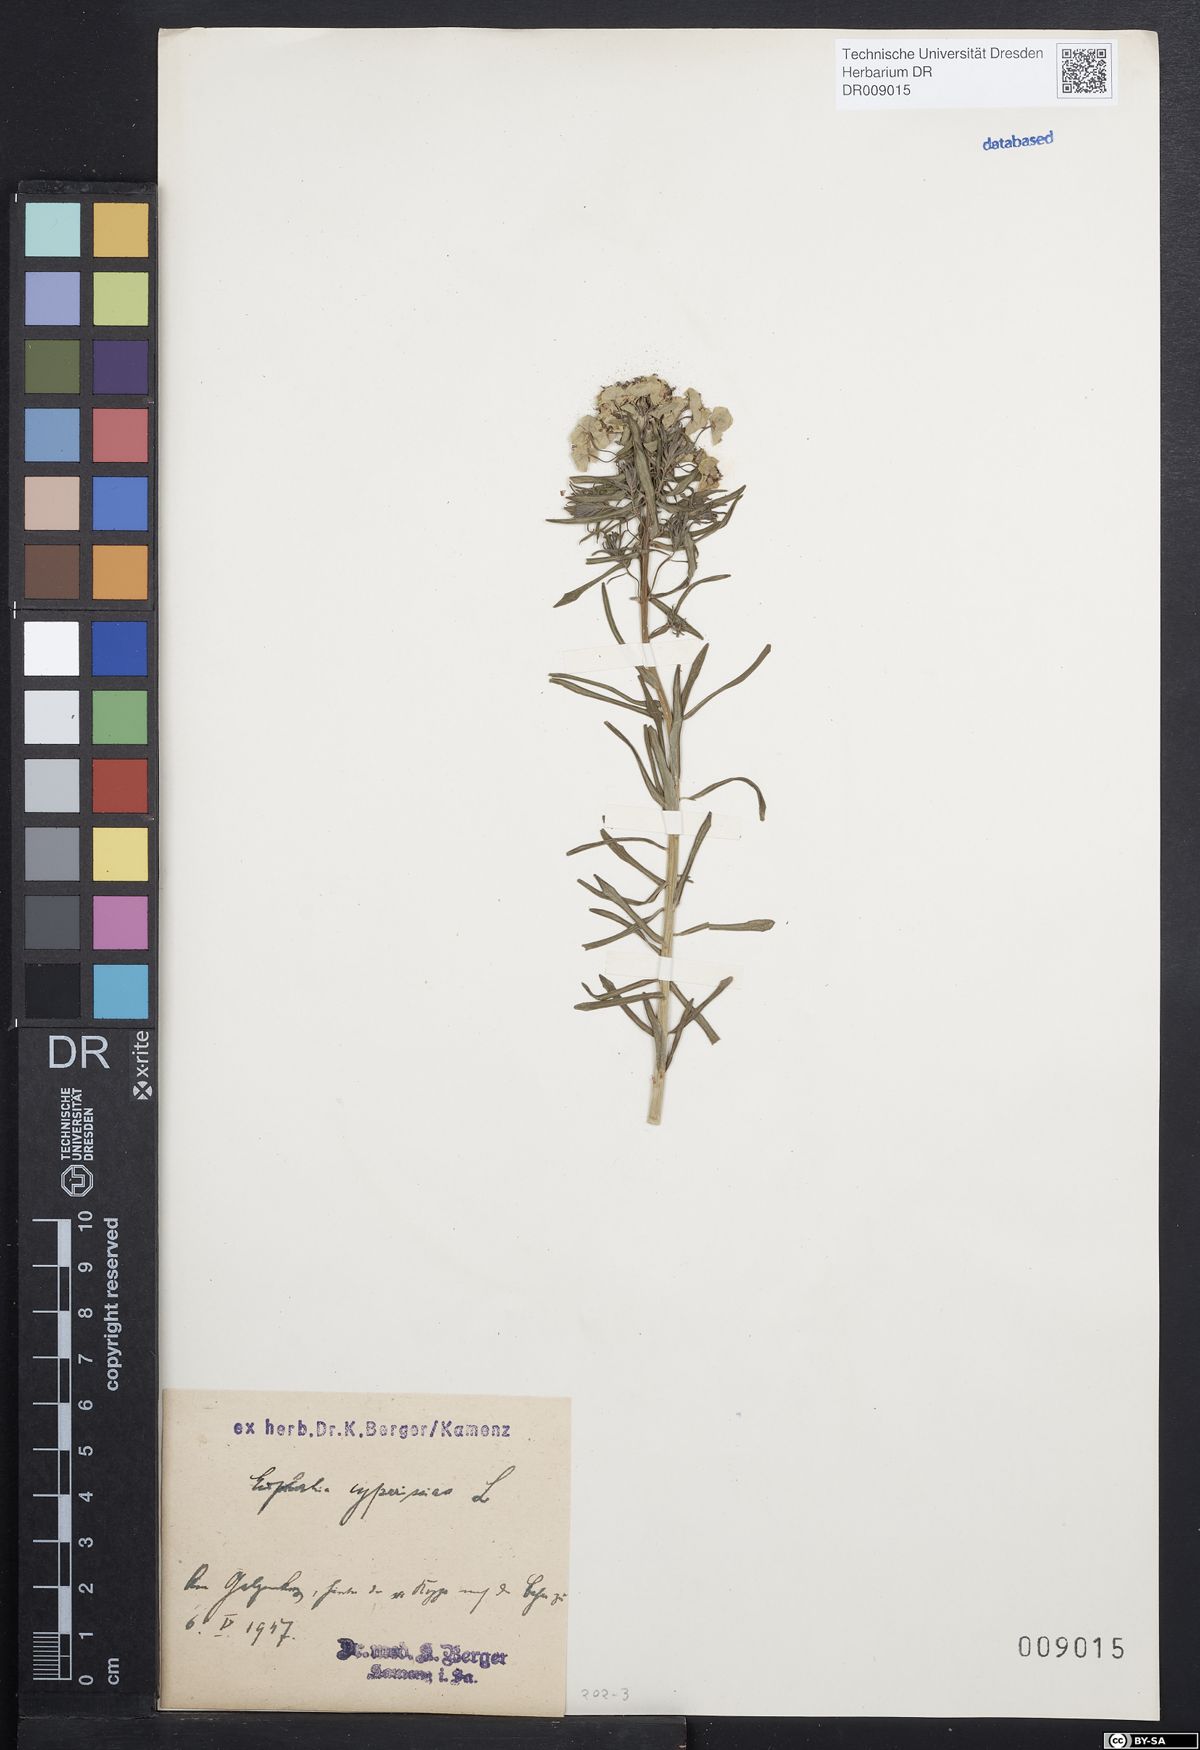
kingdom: Plantae
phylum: Tracheophyta
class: Magnoliopsida
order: Malpighiales
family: Euphorbiaceae
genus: Euphorbia
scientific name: Euphorbia cyparissias
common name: Cypress spurge
